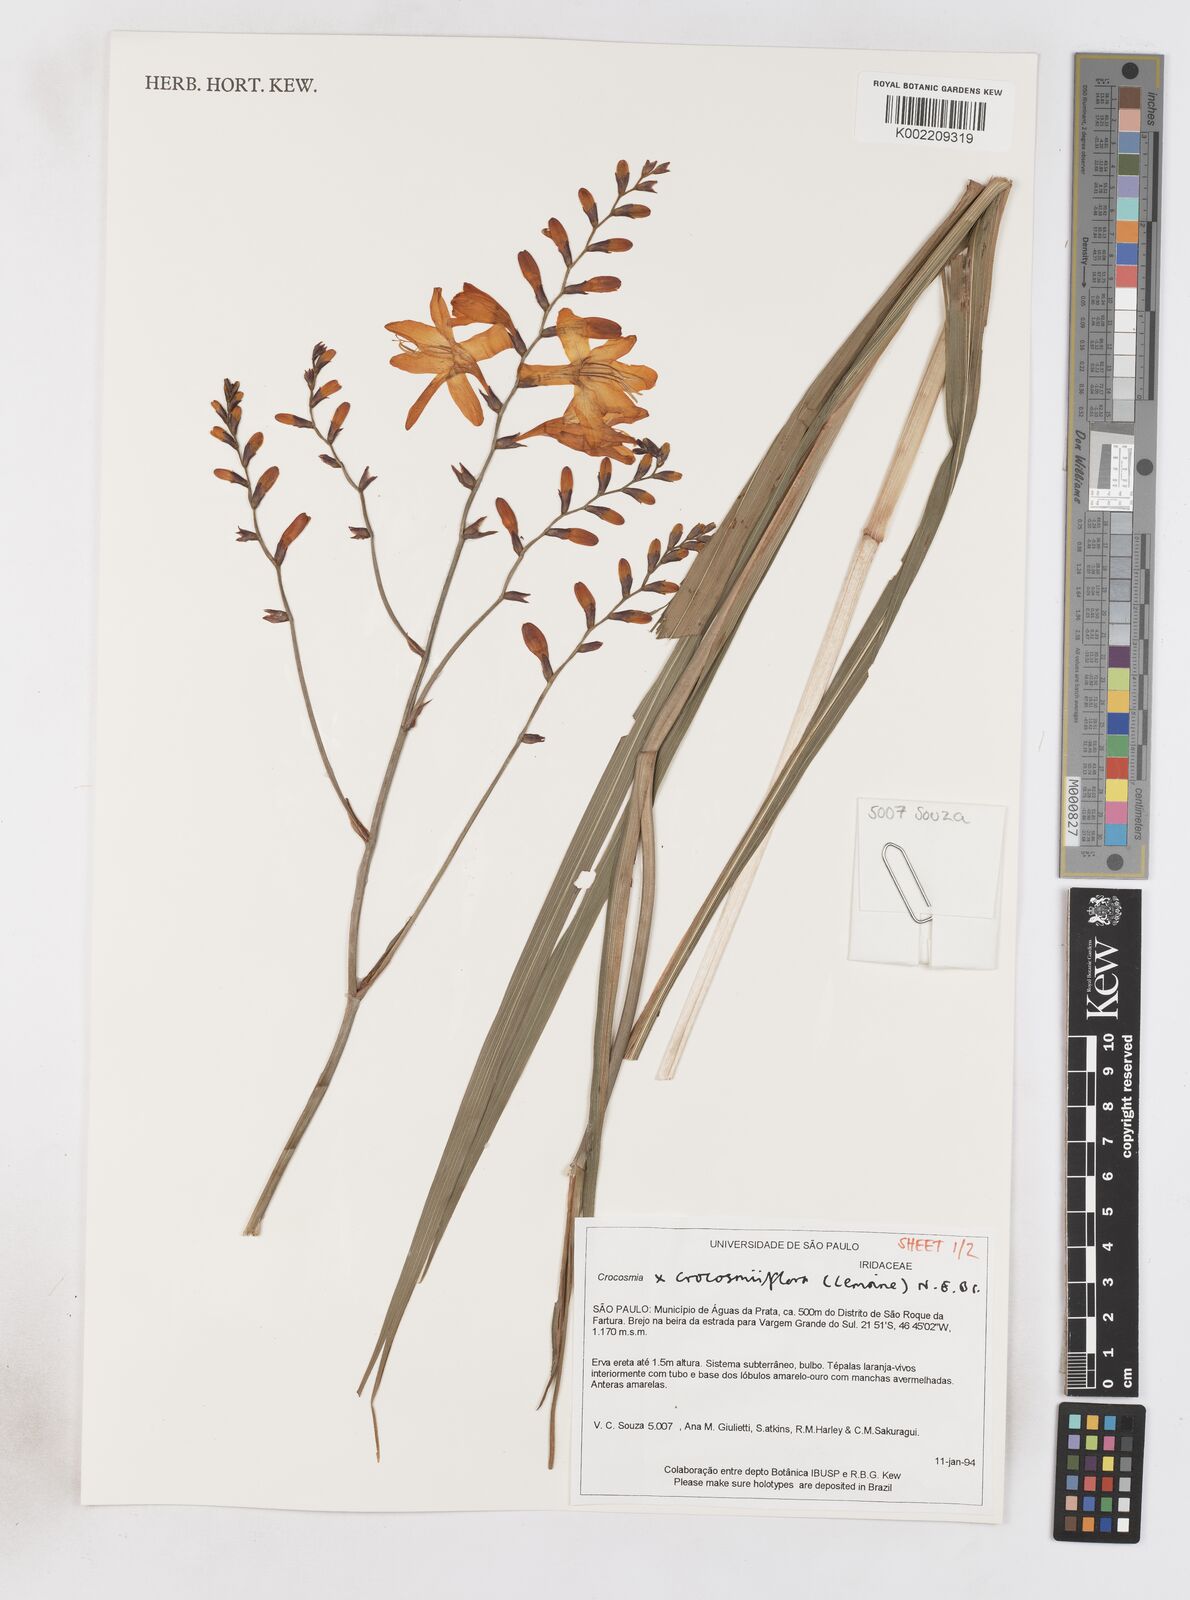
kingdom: Plantae
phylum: Tracheophyta
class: Liliopsida
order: Asparagales
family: Iridaceae
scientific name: Iridaceae
